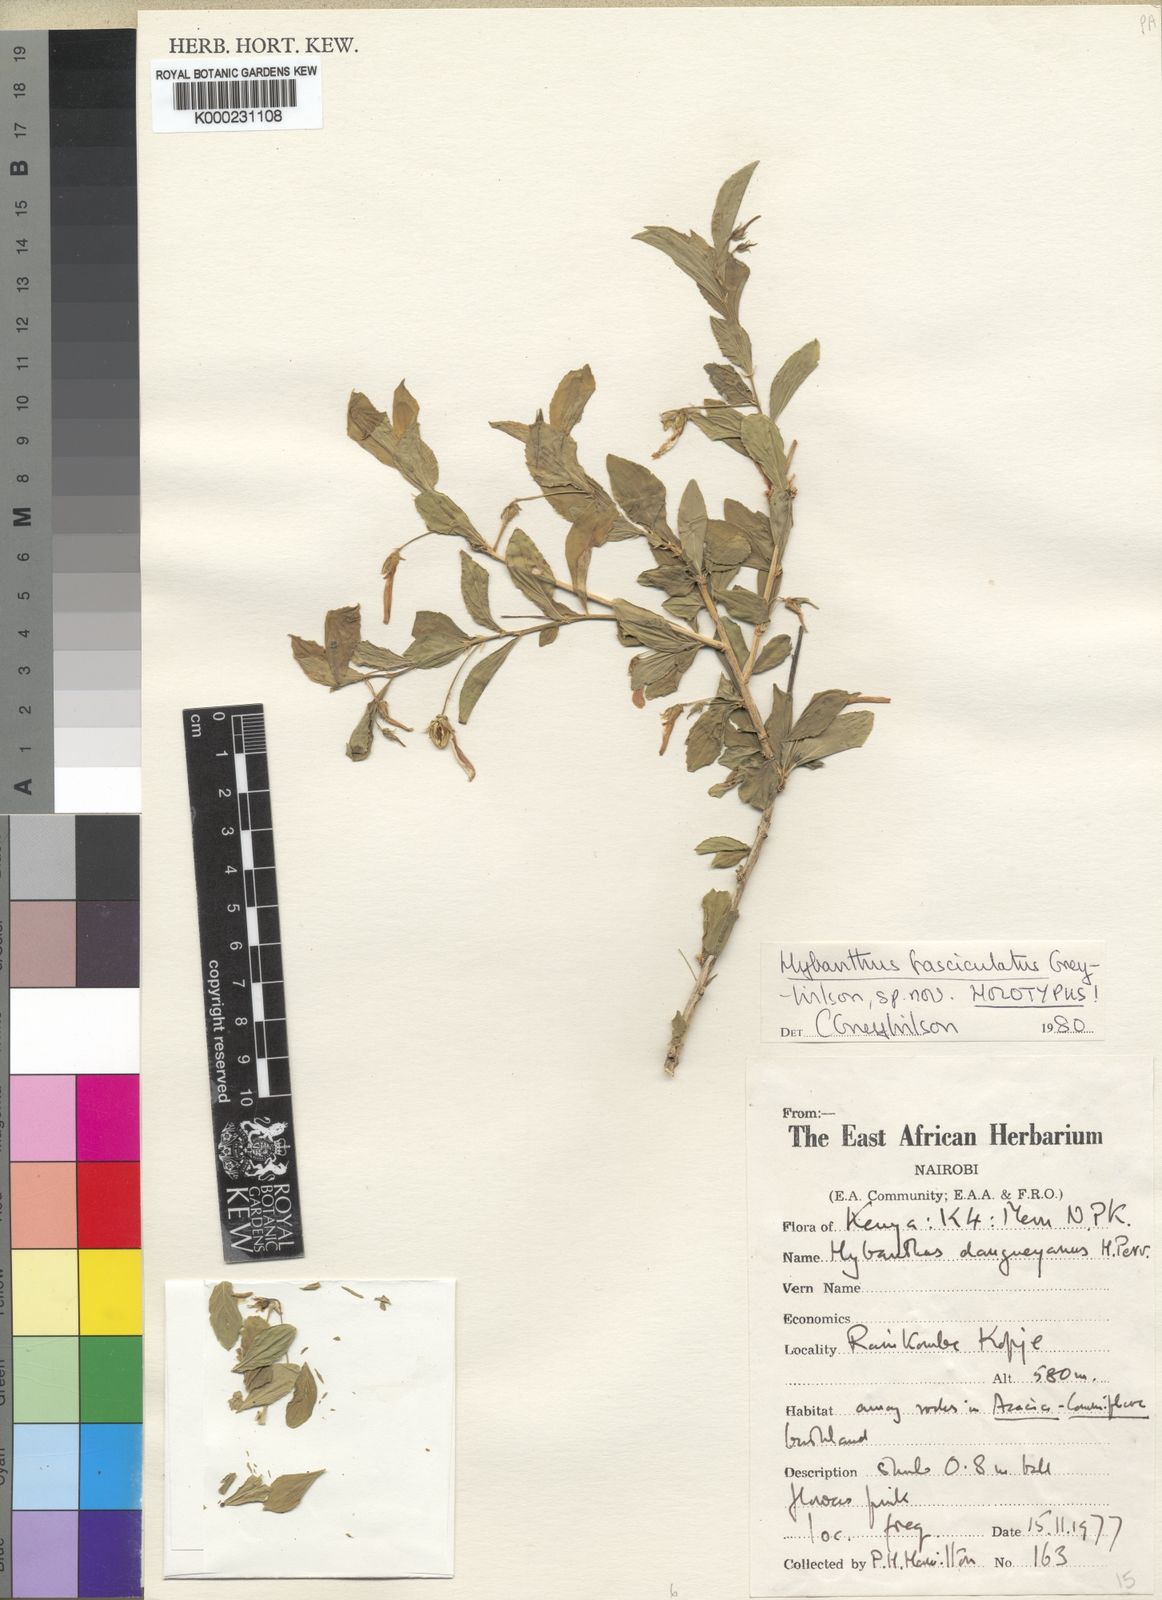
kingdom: Plantae
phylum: Tracheophyta
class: Magnoliopsida
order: Malpighiales
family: Violaceae
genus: Pigea
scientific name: Pigea fasciculata
